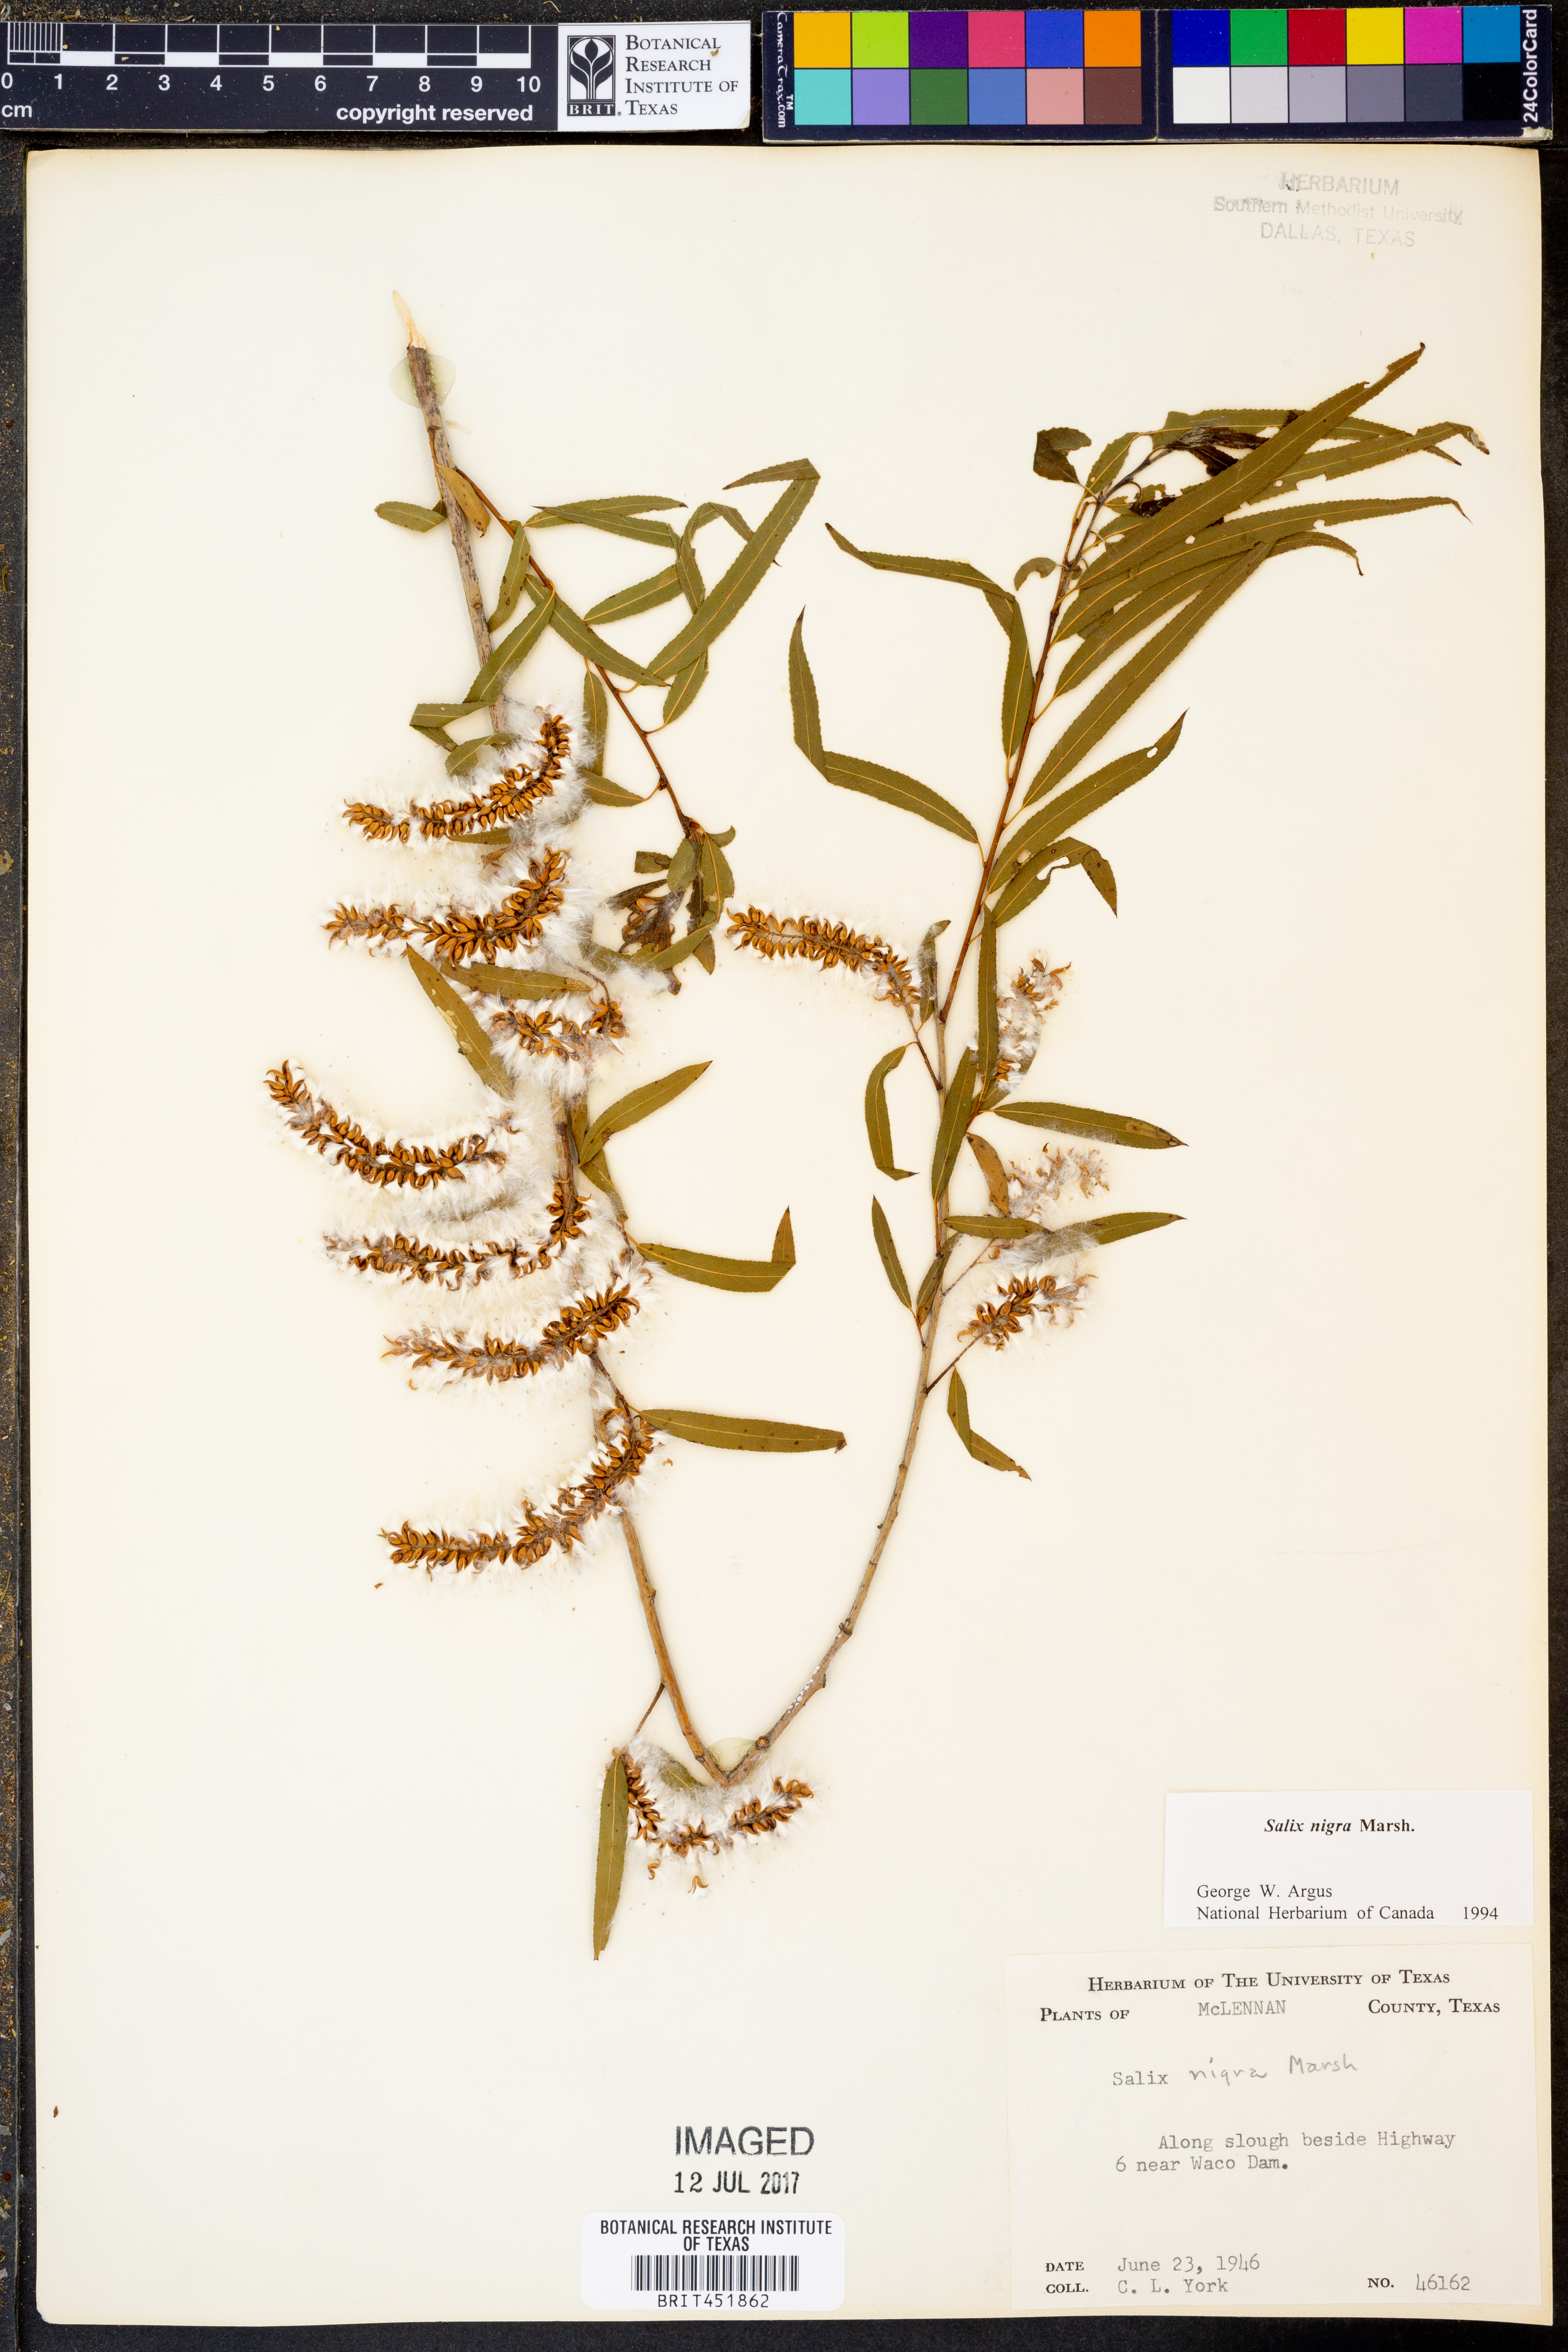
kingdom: Plantae
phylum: Tracheophyta
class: Magnoliopsida
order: Malpighiales
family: Salicaceae
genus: Salix
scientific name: Salix nigra
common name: Black willow
